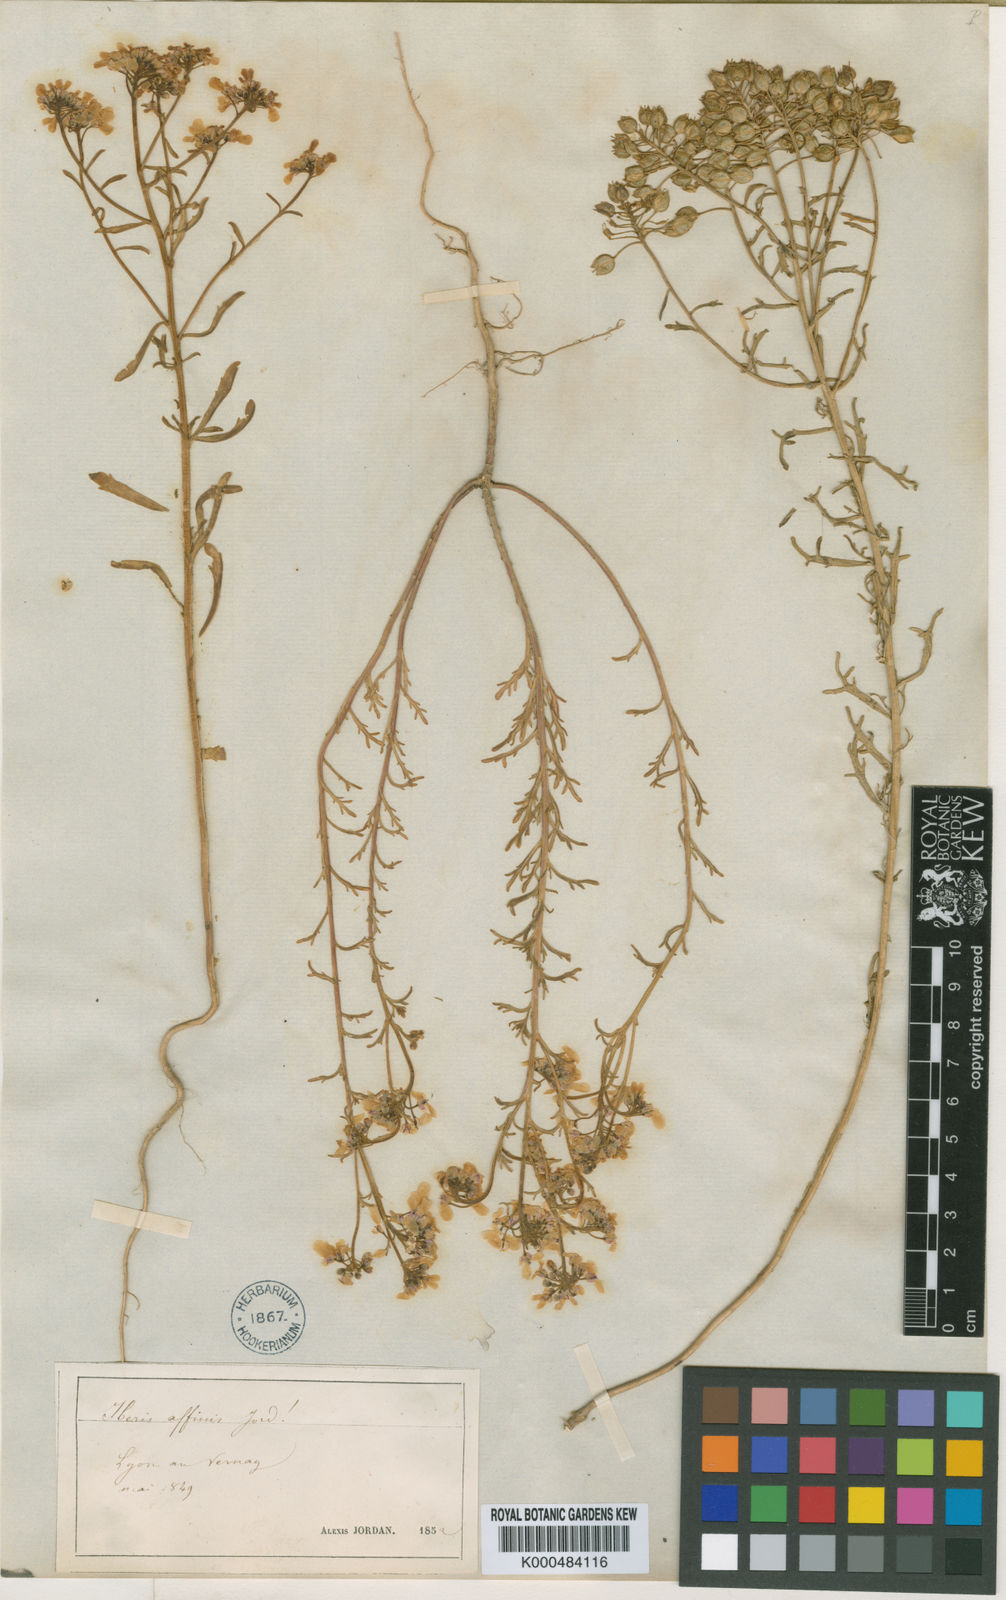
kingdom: Plantae
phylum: Tracheophyta
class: Magnoliopsida
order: Brassicales
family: Brassicaceae
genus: Iberis
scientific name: Iberis amara
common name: Annual candytuft
